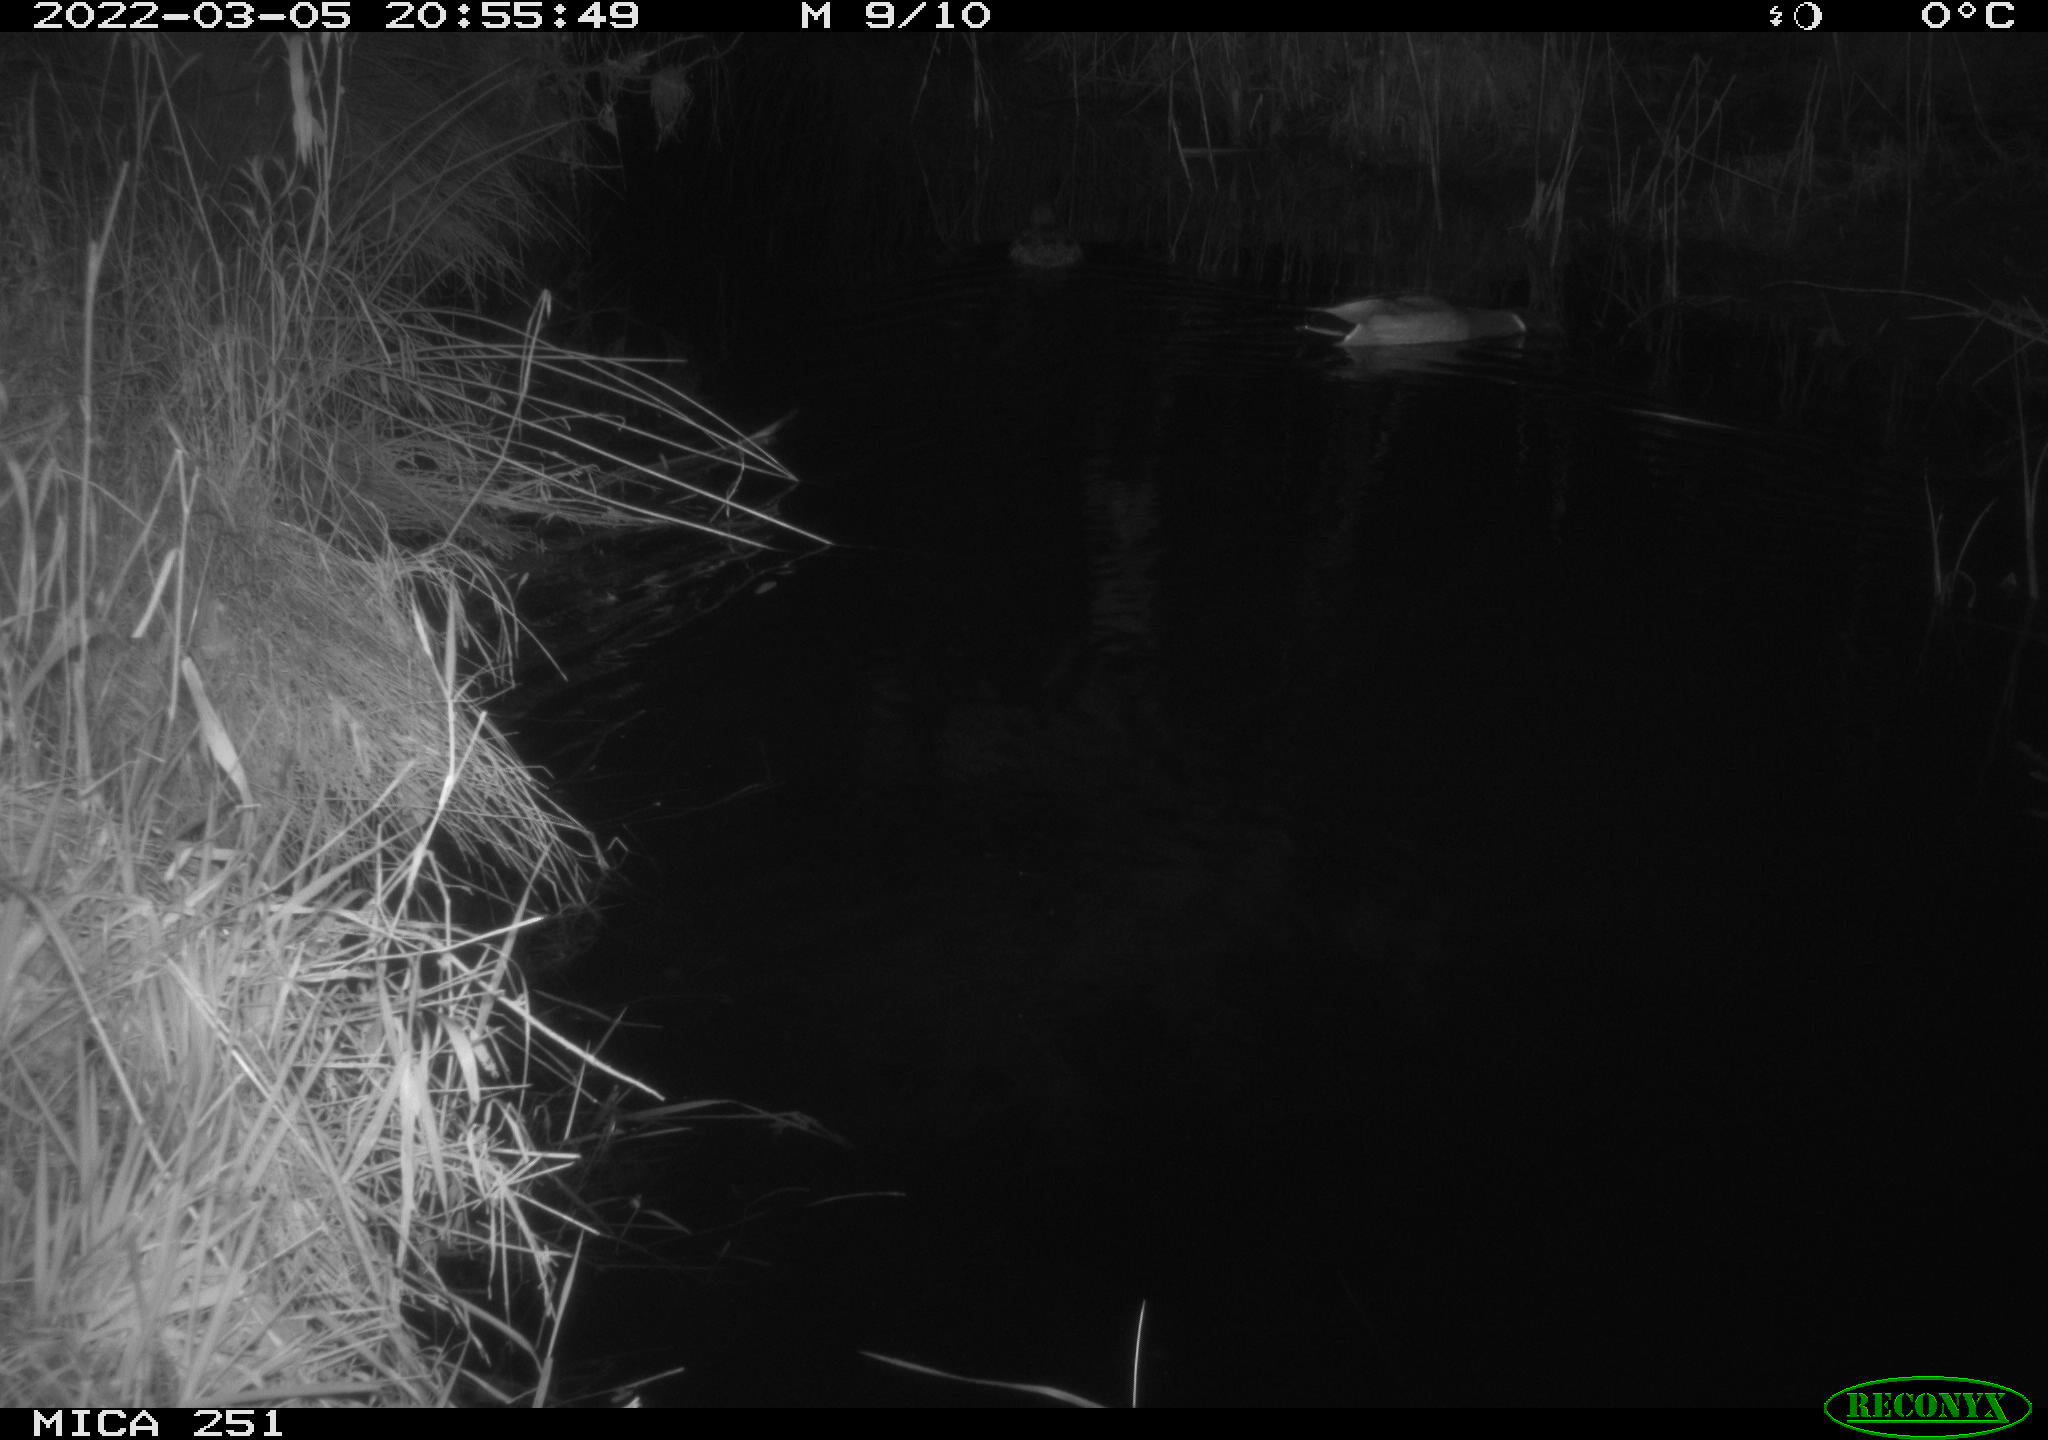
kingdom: Animalia
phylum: Chordata
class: Aves
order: Anseriformes
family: Anatidae
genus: Anas
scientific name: Anas platyrhynchos
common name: Mallard
